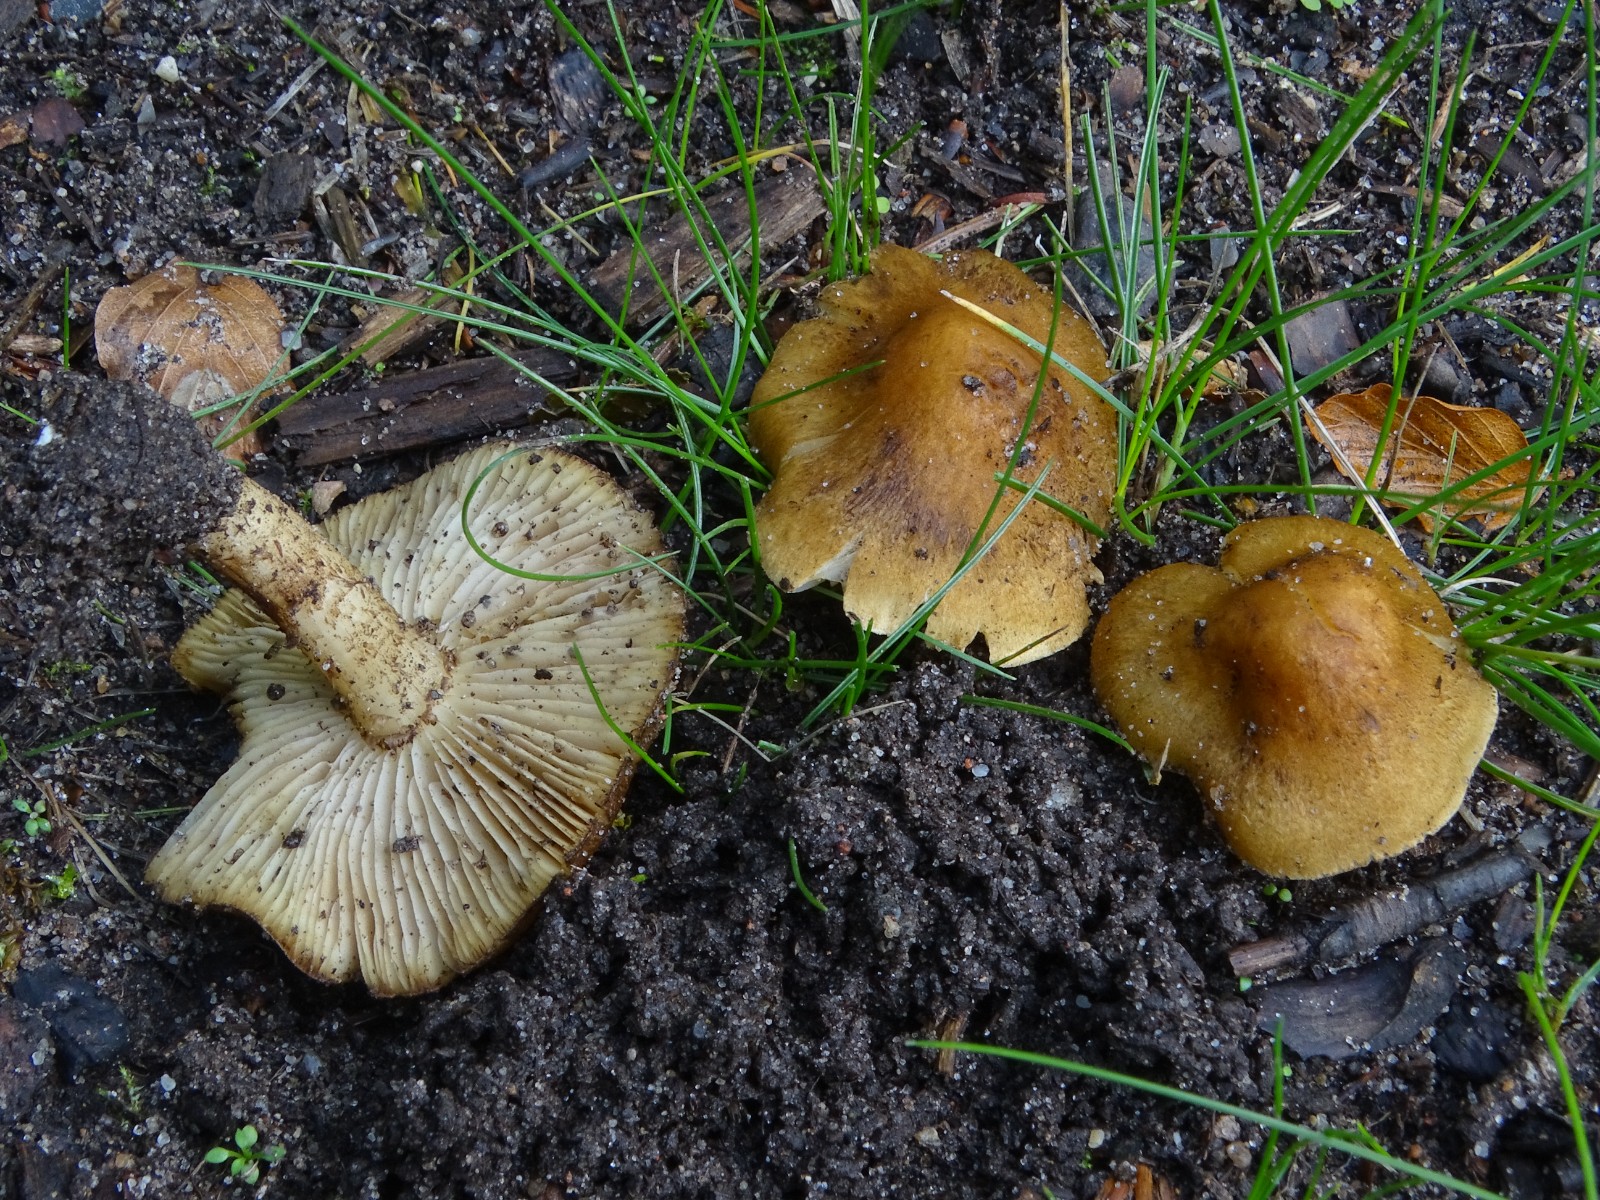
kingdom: Fungi
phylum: Basidiomycota
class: Agaricomycetes
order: Agaricales
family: Inocybaceae
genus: Inocybe
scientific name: Inocybe
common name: trævlhat
